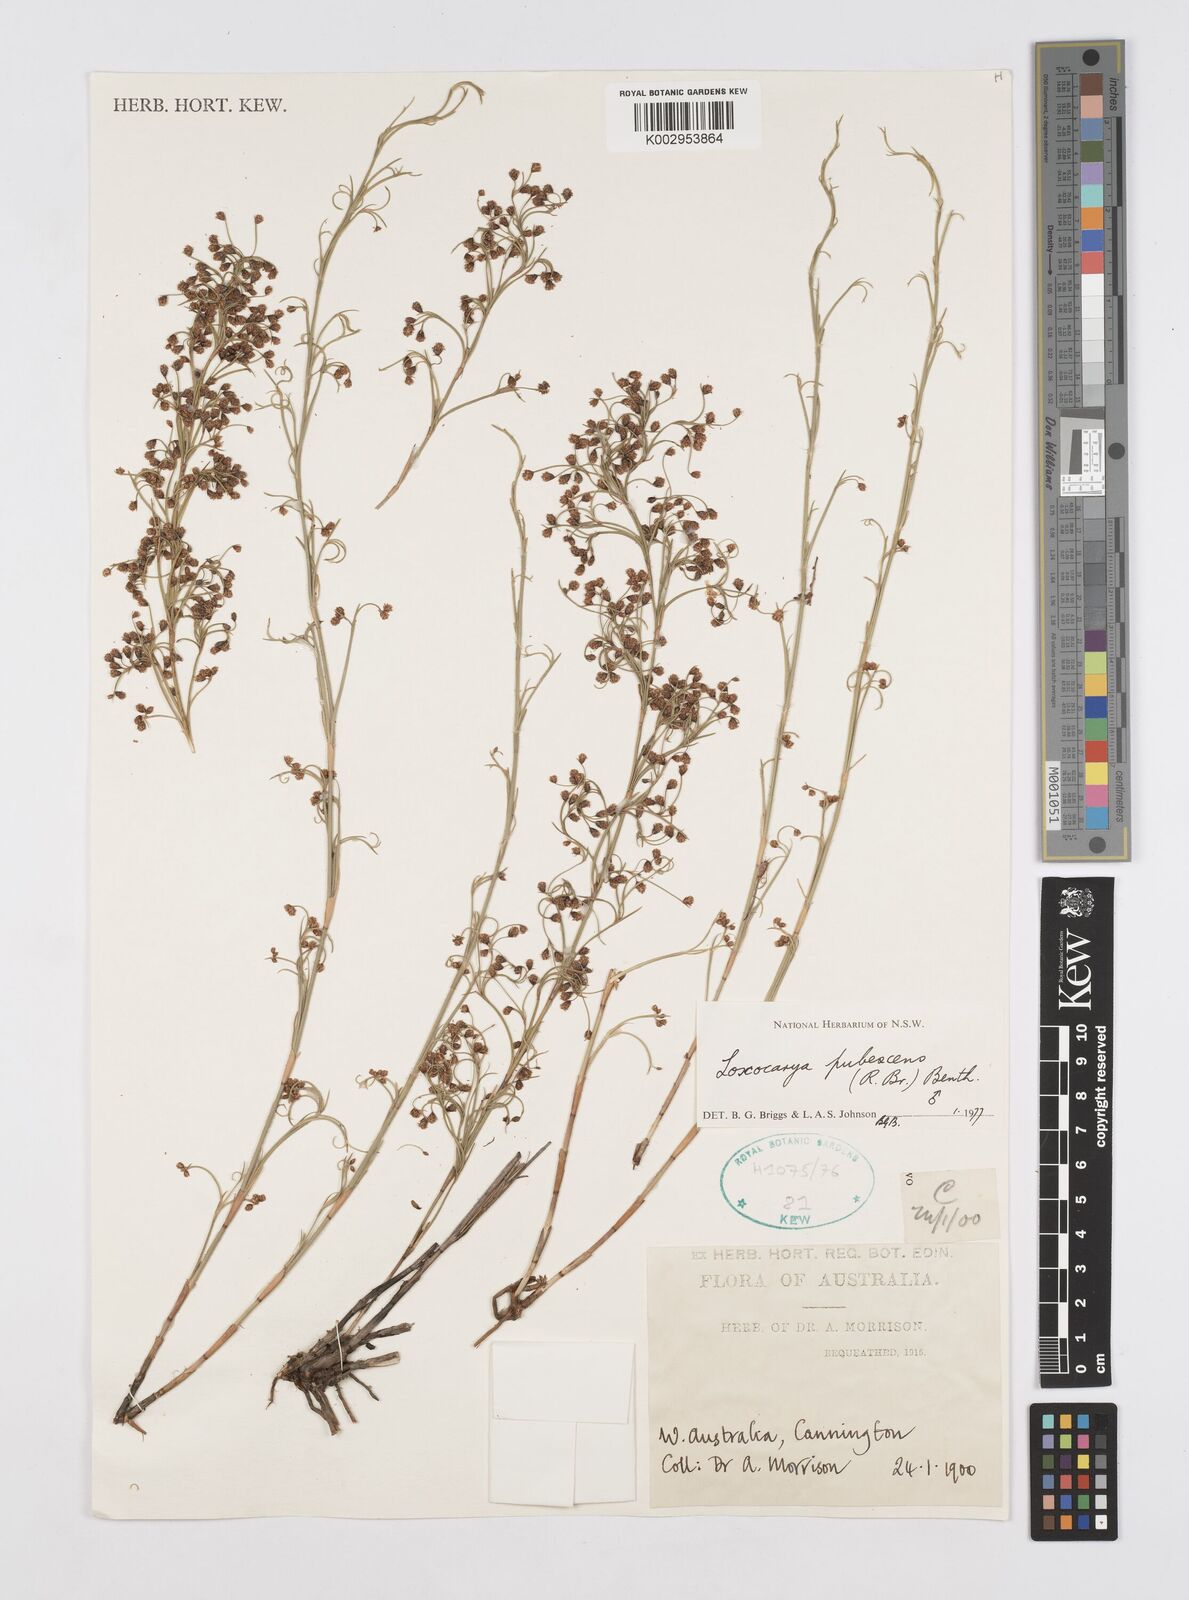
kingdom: Plantae
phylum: Tracheophyta
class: Liliopsida
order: Poales
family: Restionaceae
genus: Hypolaena
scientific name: Hypolaena pubescens
